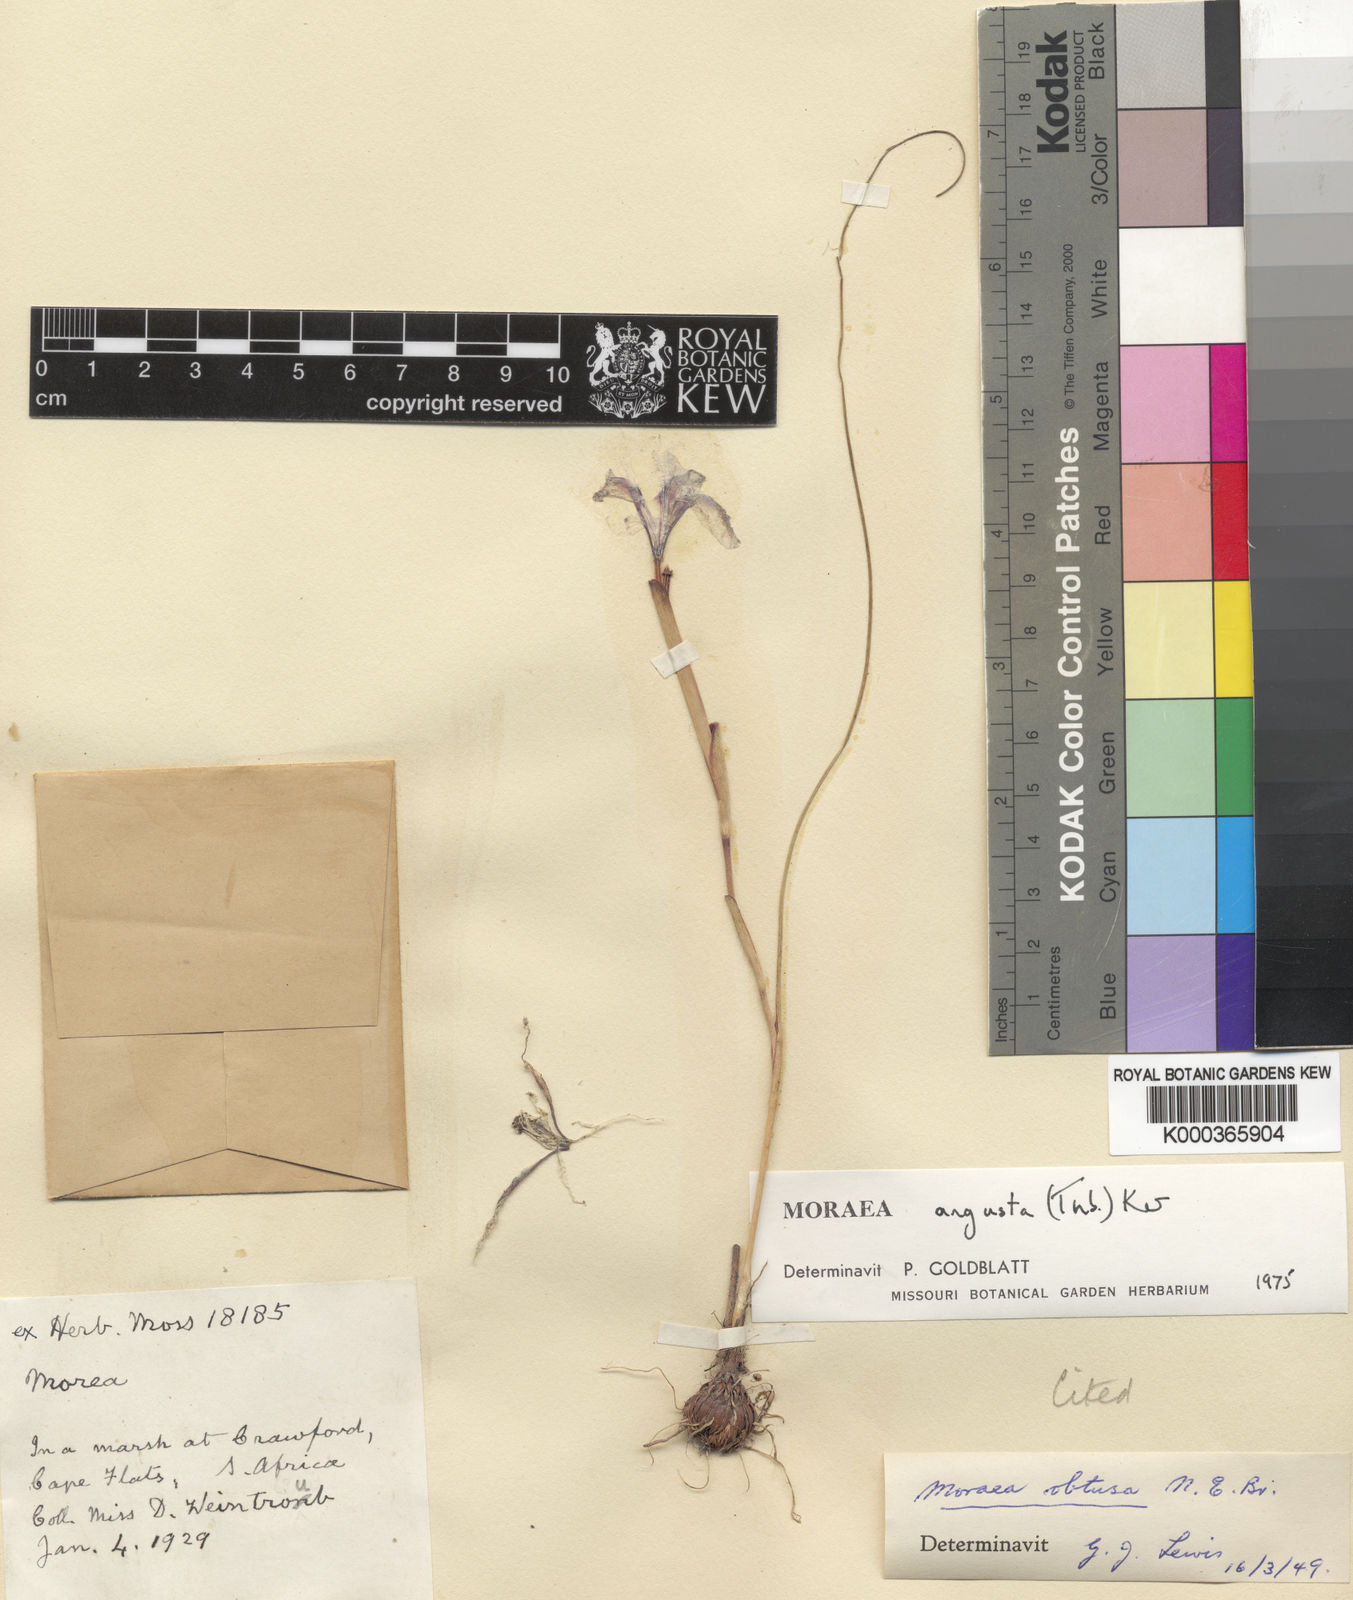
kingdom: Plantae
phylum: Tracheophyta
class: Liliopsida
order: Asparagales
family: Iridaceae
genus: Moraea
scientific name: Moraea angusta
